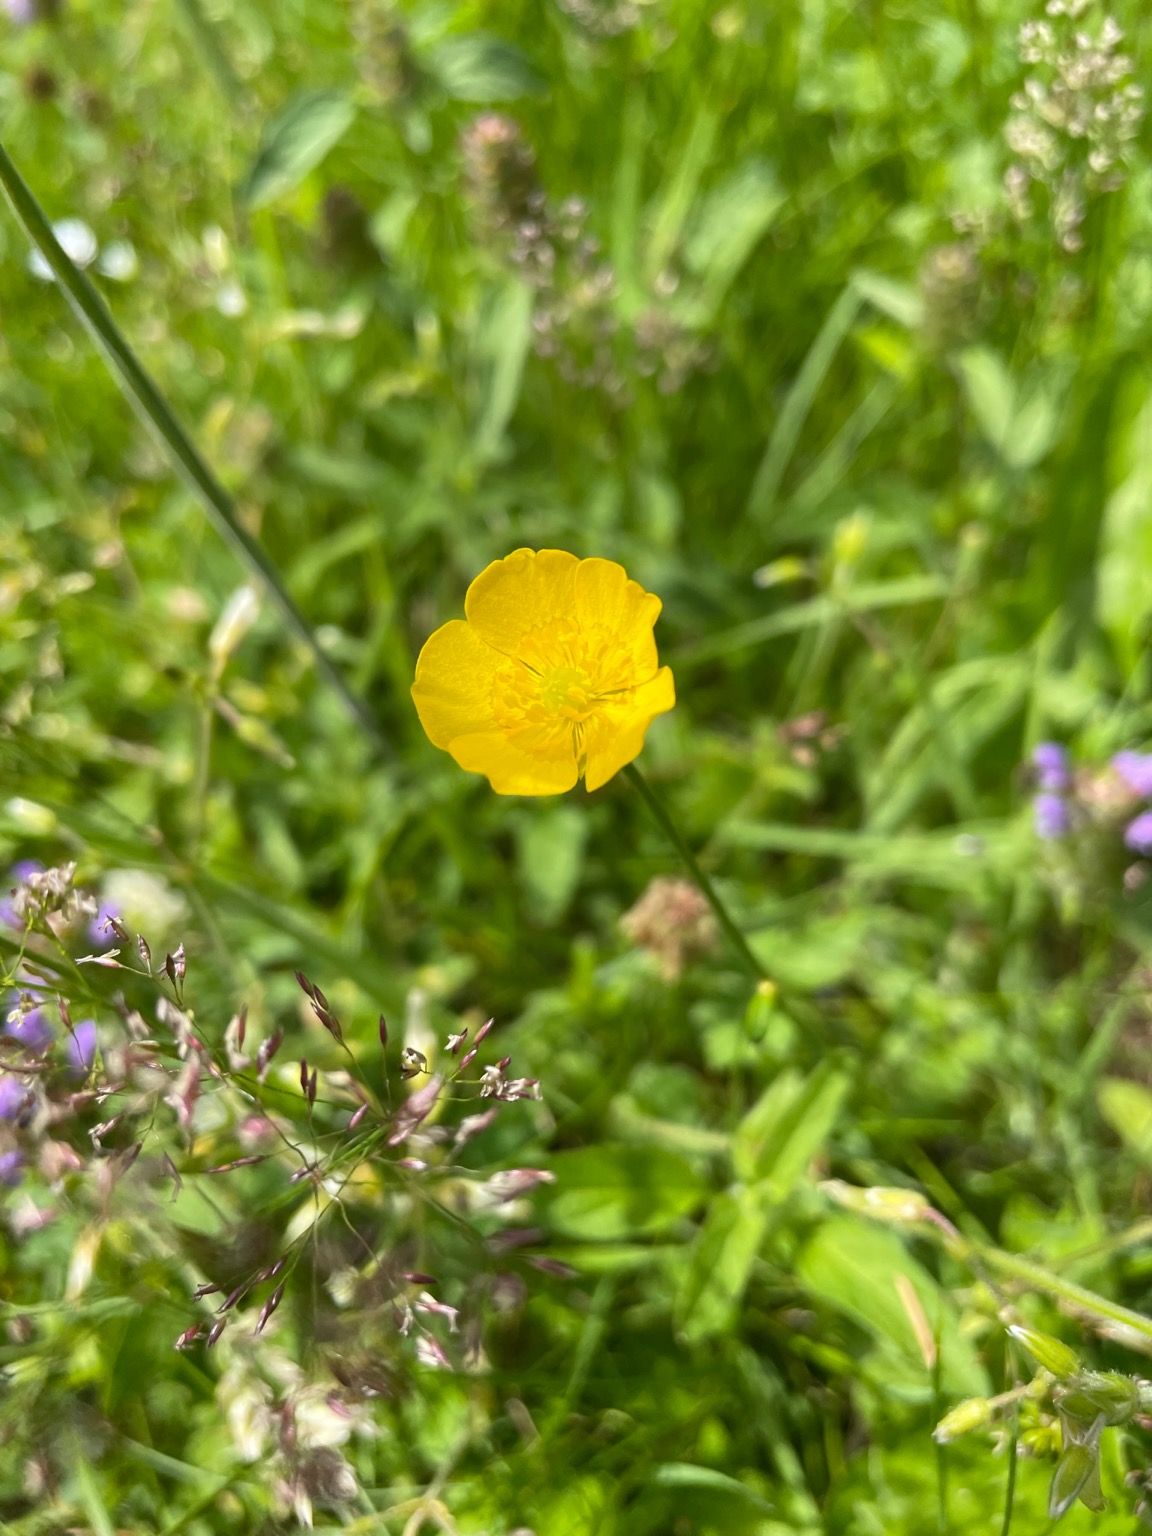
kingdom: Plantae
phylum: Tracheophyta
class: Magnoliopsida
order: Ranunculales
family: Ranunculaceae
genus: Ranunculus
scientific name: Ranunculus
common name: Ranunkelslægten
